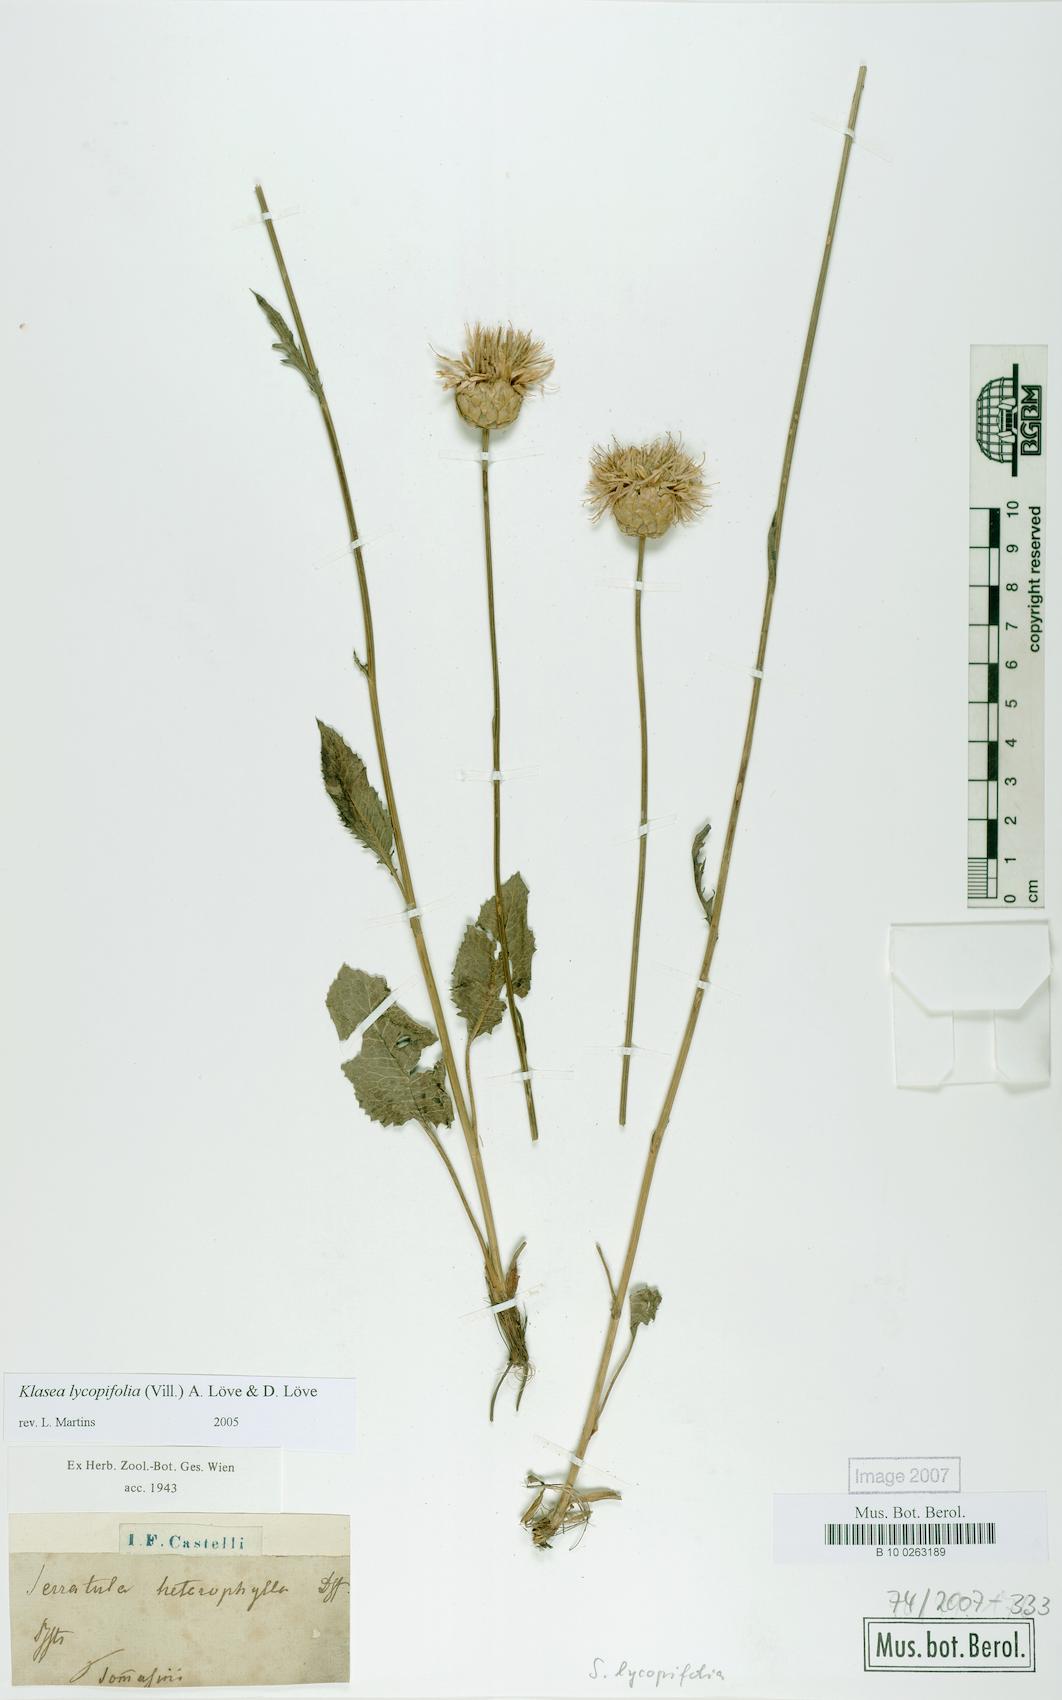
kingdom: Plantae
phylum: Tracheophyta
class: Magnoliopsida
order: Asterales
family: Asteraceae
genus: Klasea
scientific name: Klasea lycopifolia
